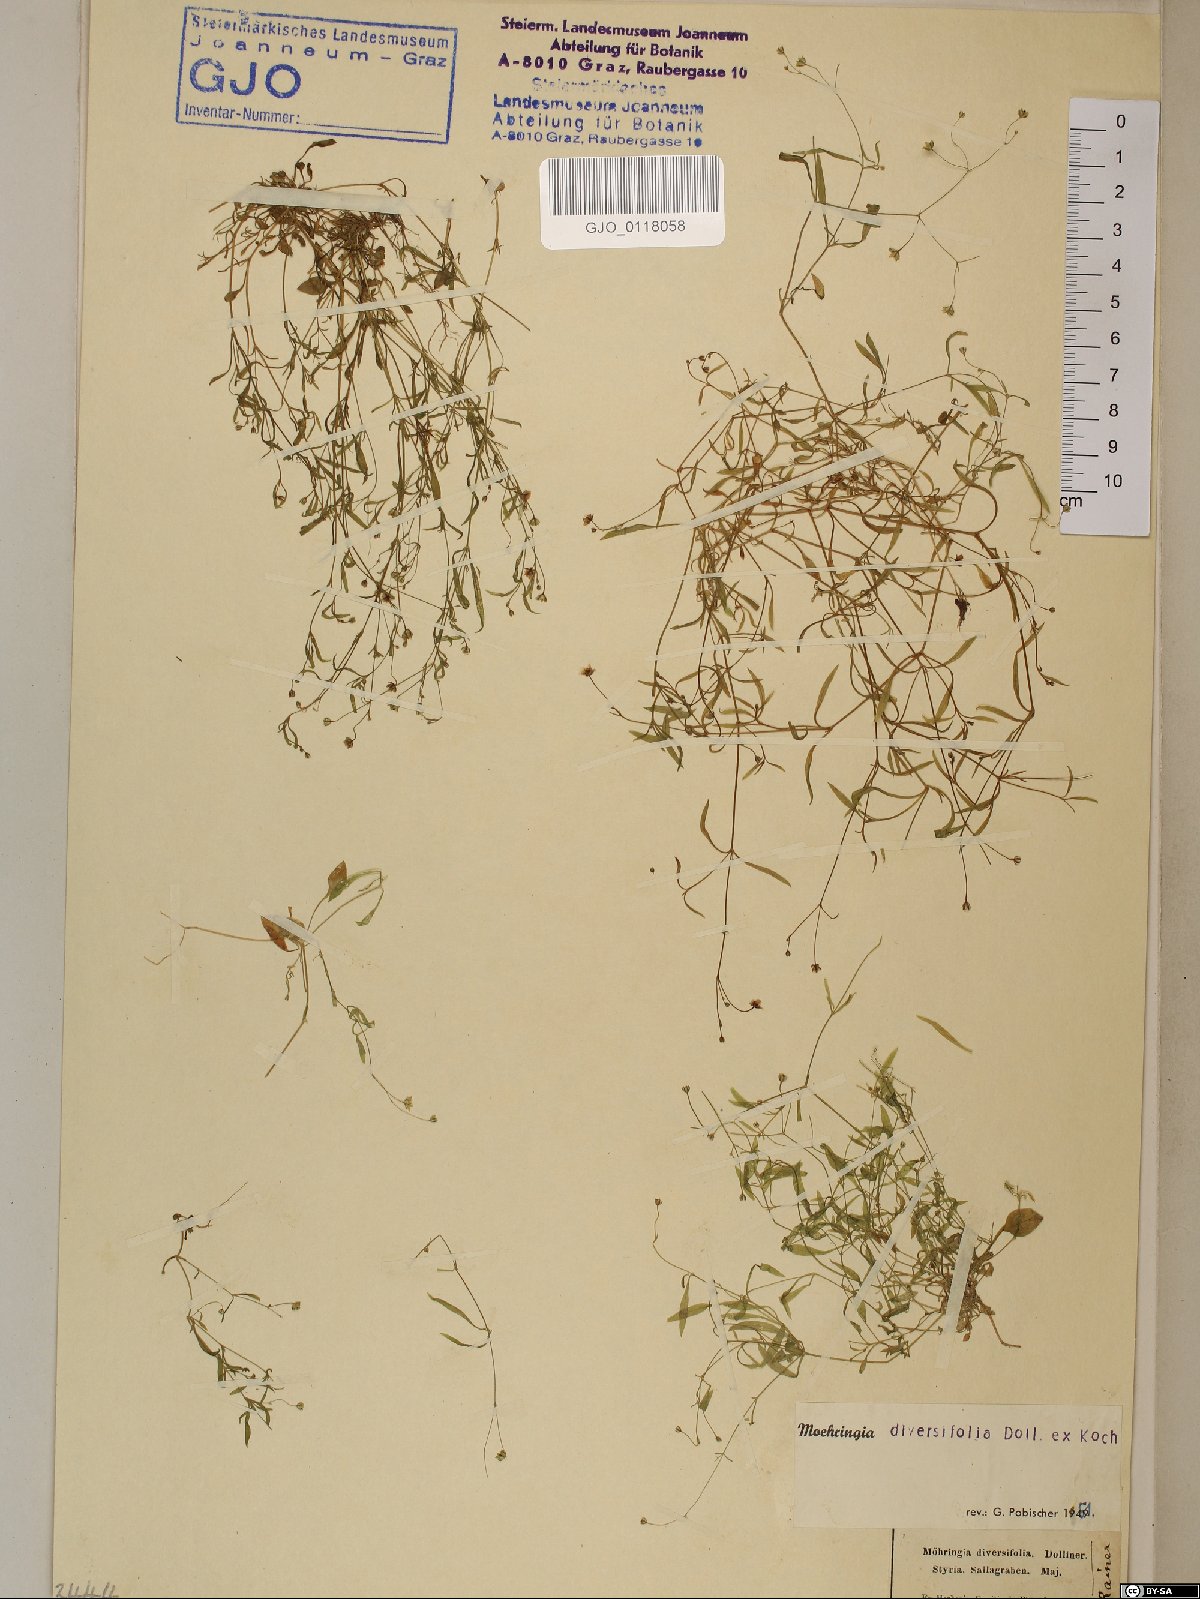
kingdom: Plantae
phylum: Tracheophyta
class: Magnoliopsida
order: Caryophyllales
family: Caryophyllaceae
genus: Moehringia
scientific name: Moehringia diversifolia
